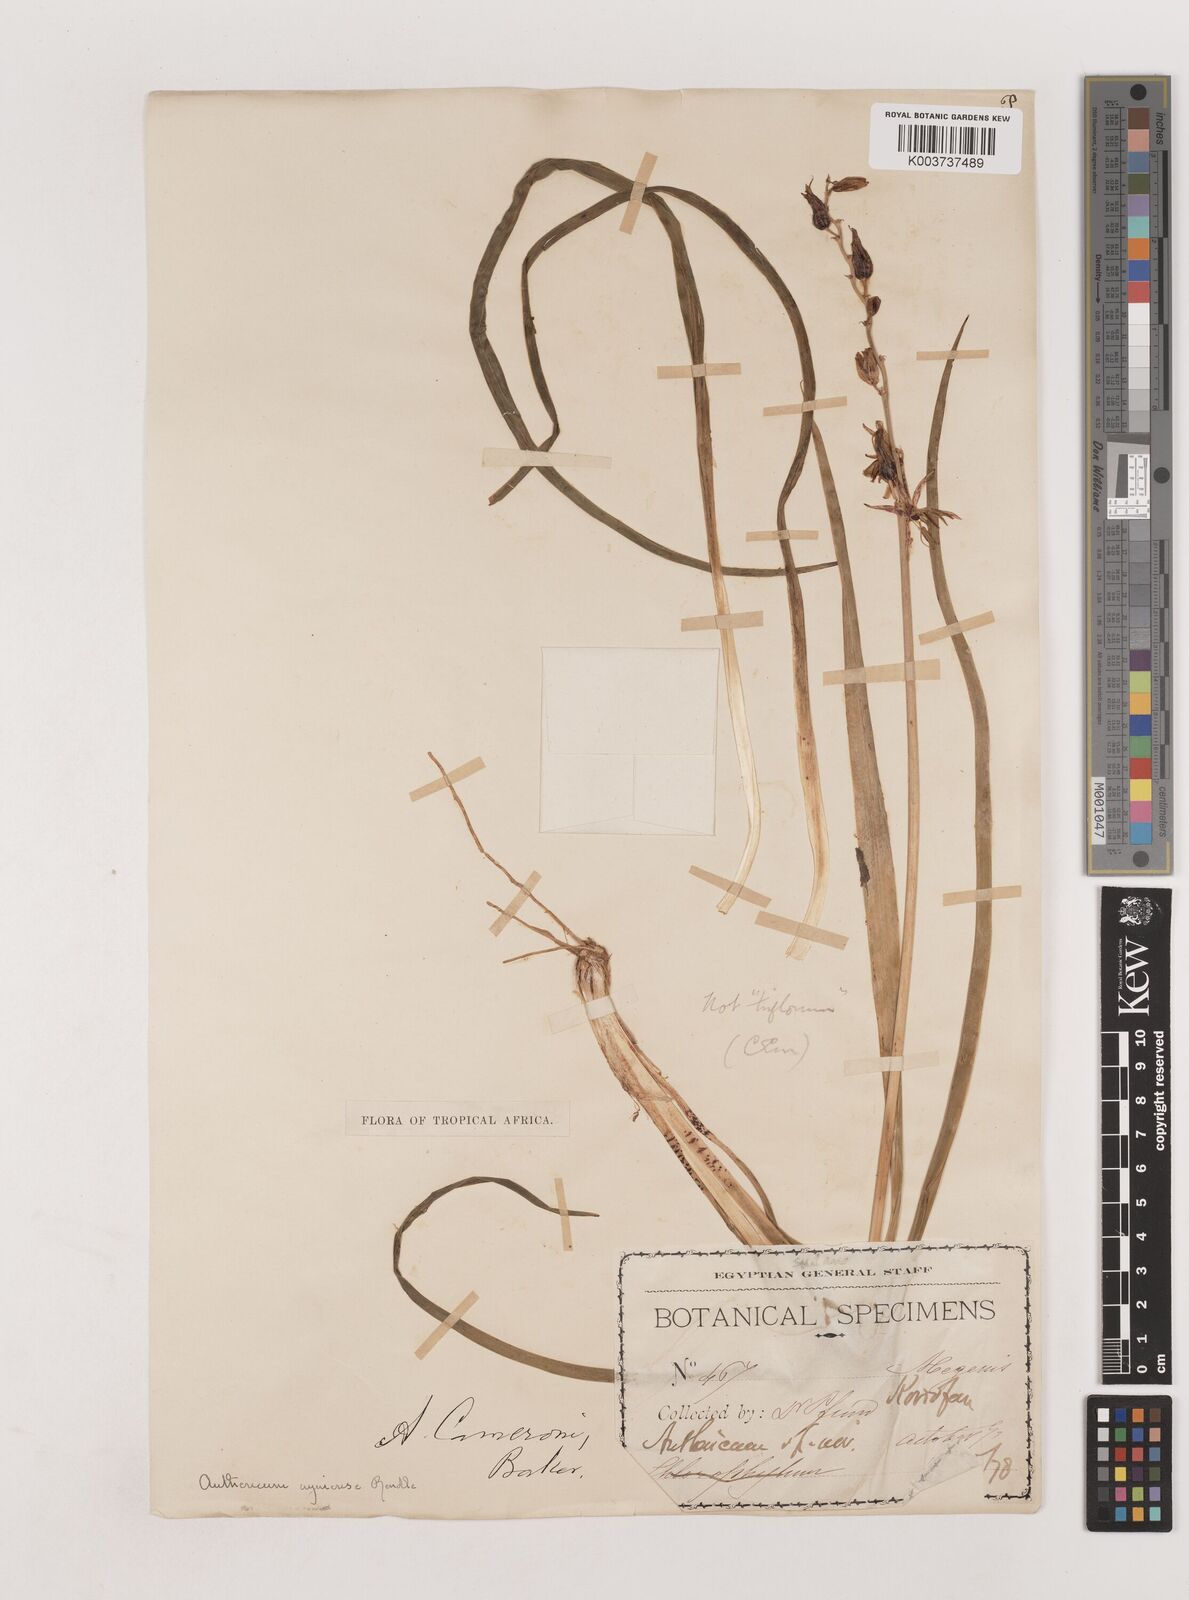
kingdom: Plantae
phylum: Tracheophyta
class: Liliopsida
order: Asparagales
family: Asparagaceae
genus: Chlorophytum
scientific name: Chlorophytum cameronii
